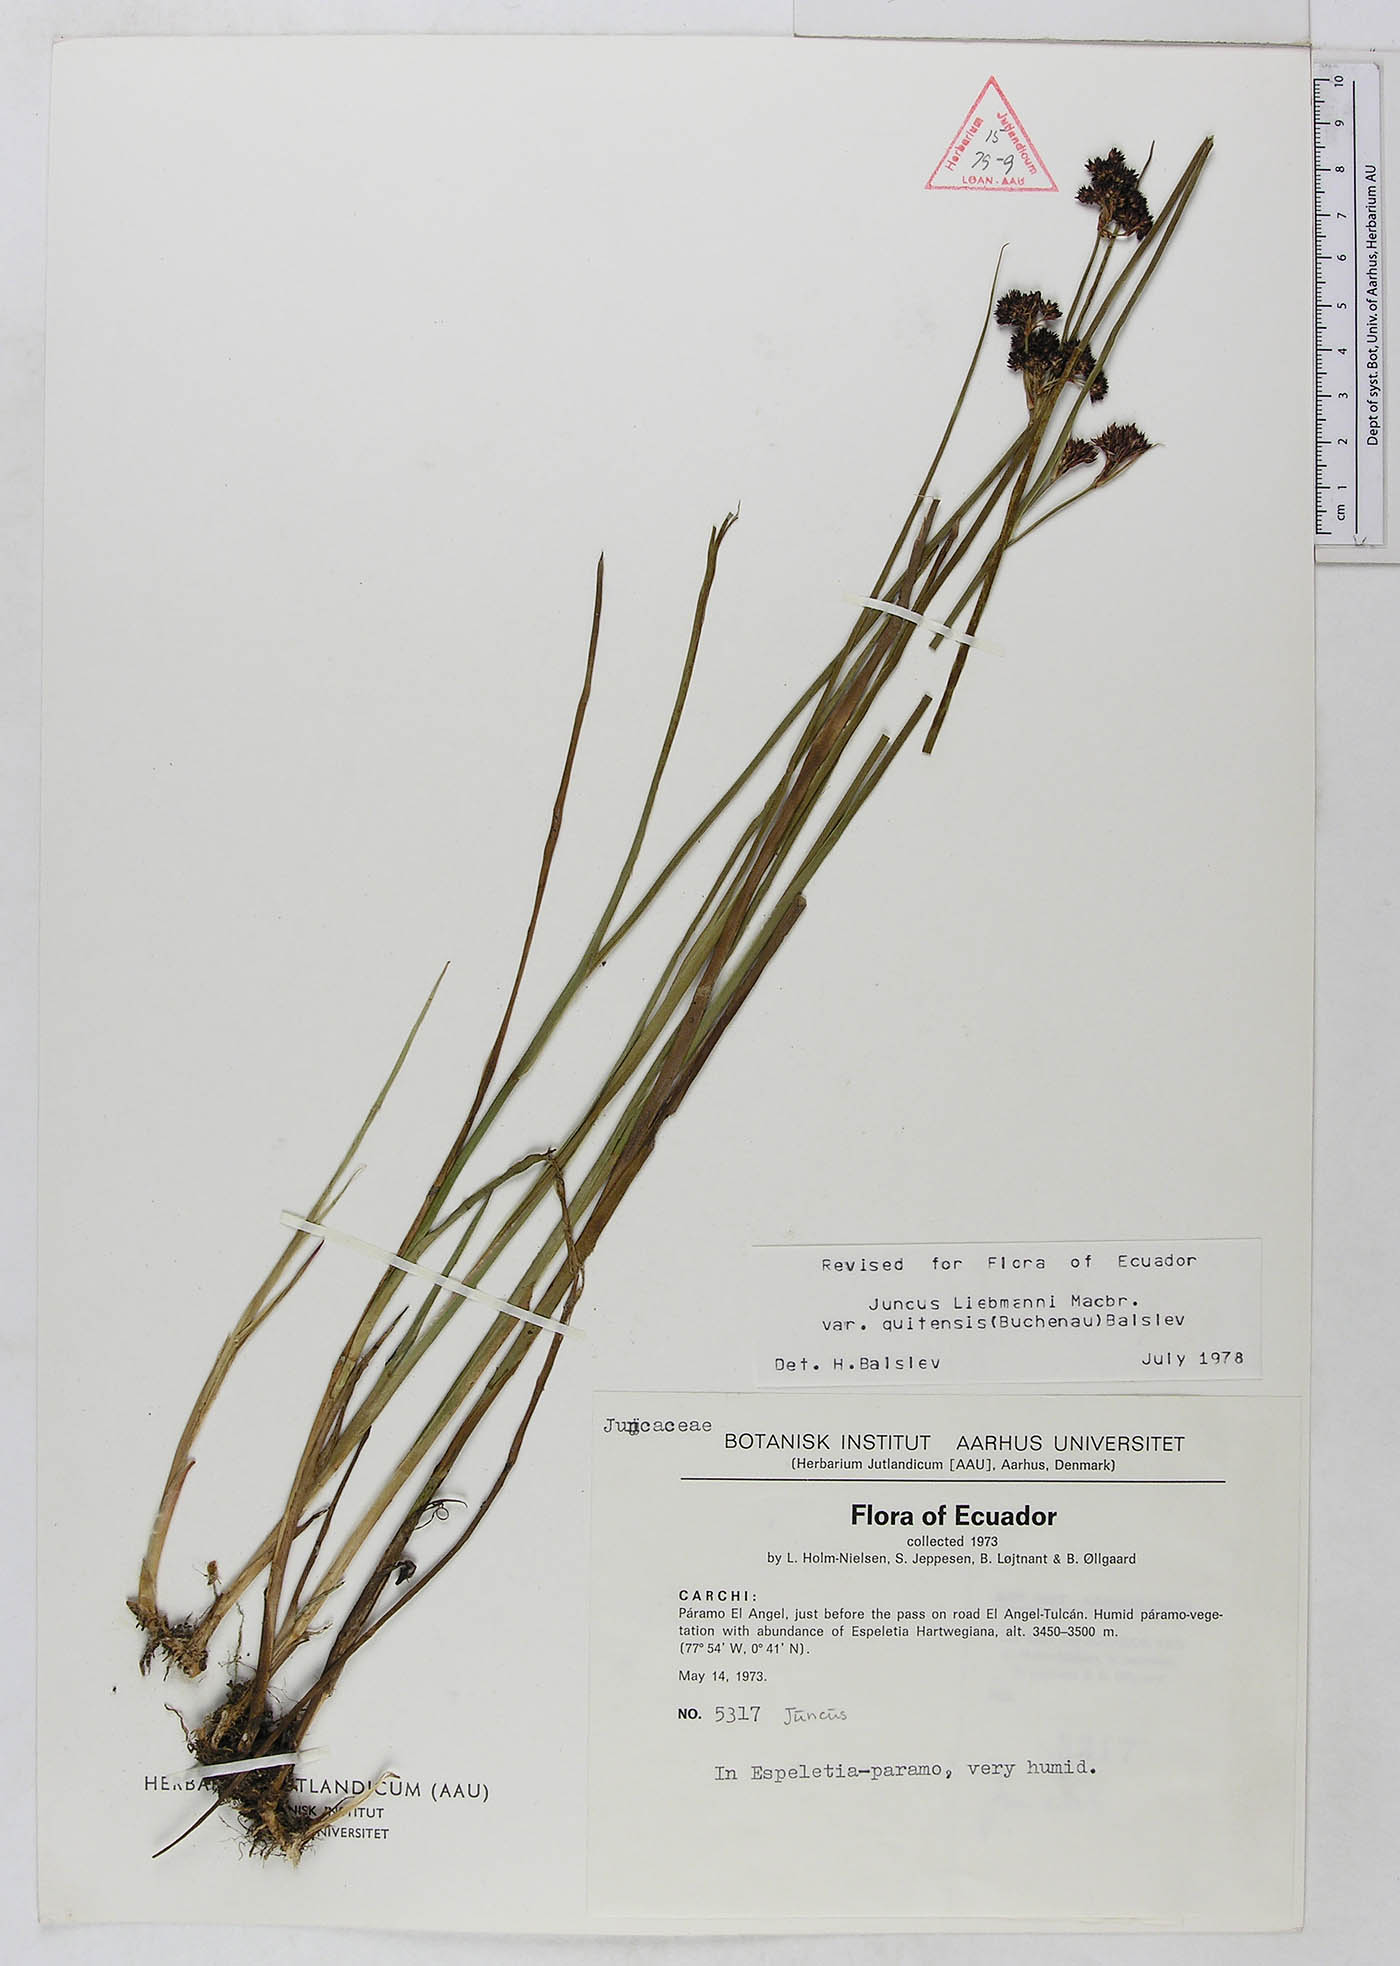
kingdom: Plantae
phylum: Tracheophyta
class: Liliopsida
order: Poales
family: Juncaceae
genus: Juncus
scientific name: Juncus liebmannii
